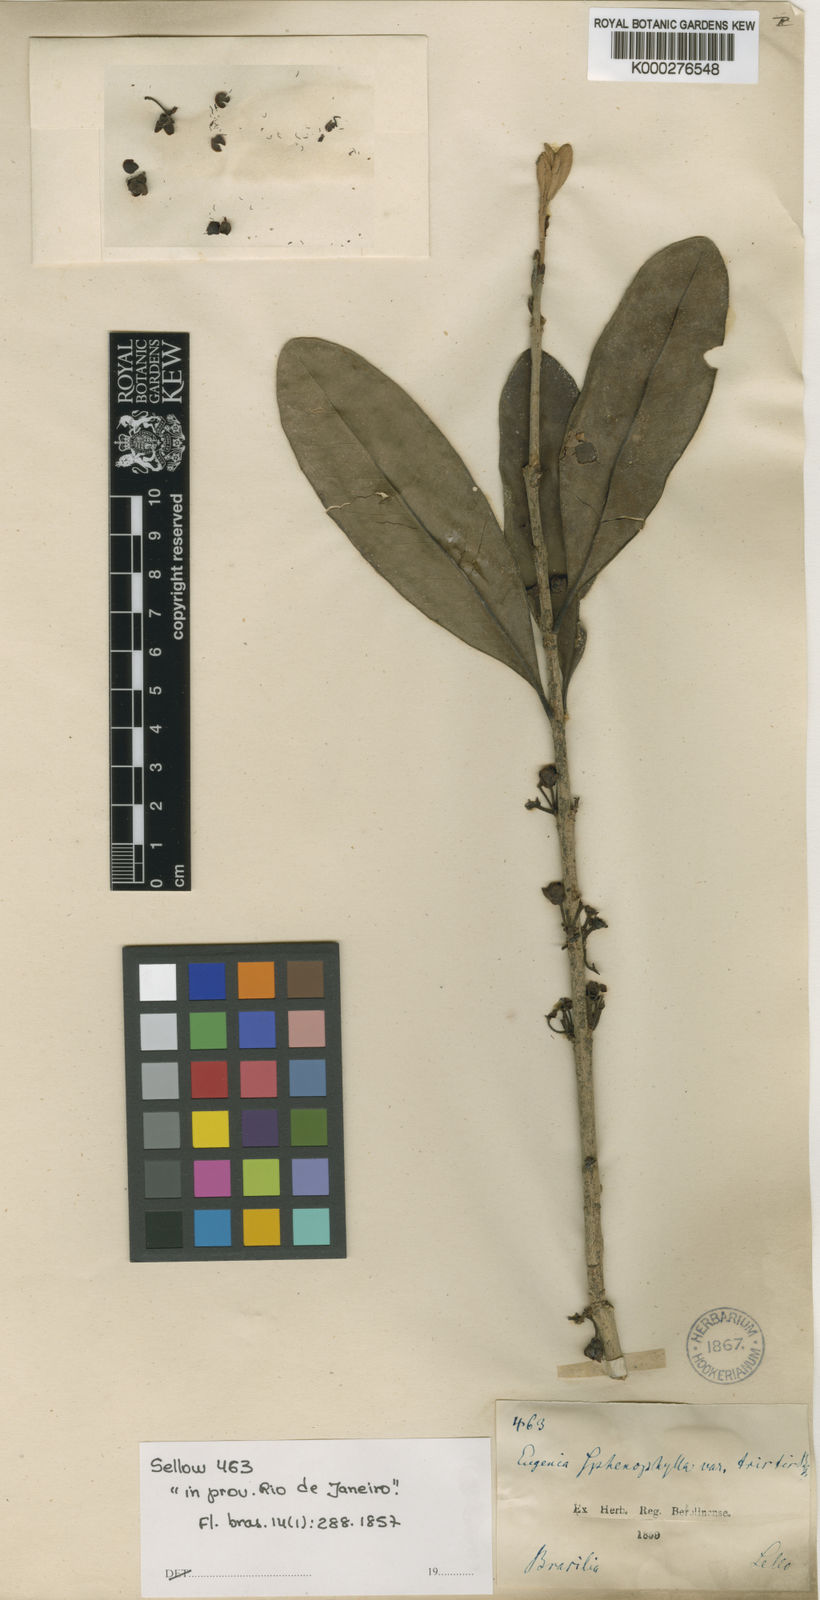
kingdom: Plantae
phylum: Tracheophyta
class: Magnoliopsida
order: Myrtales
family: Myrtaceae
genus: Eugenia
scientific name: Eugenia dodonaeifolia
